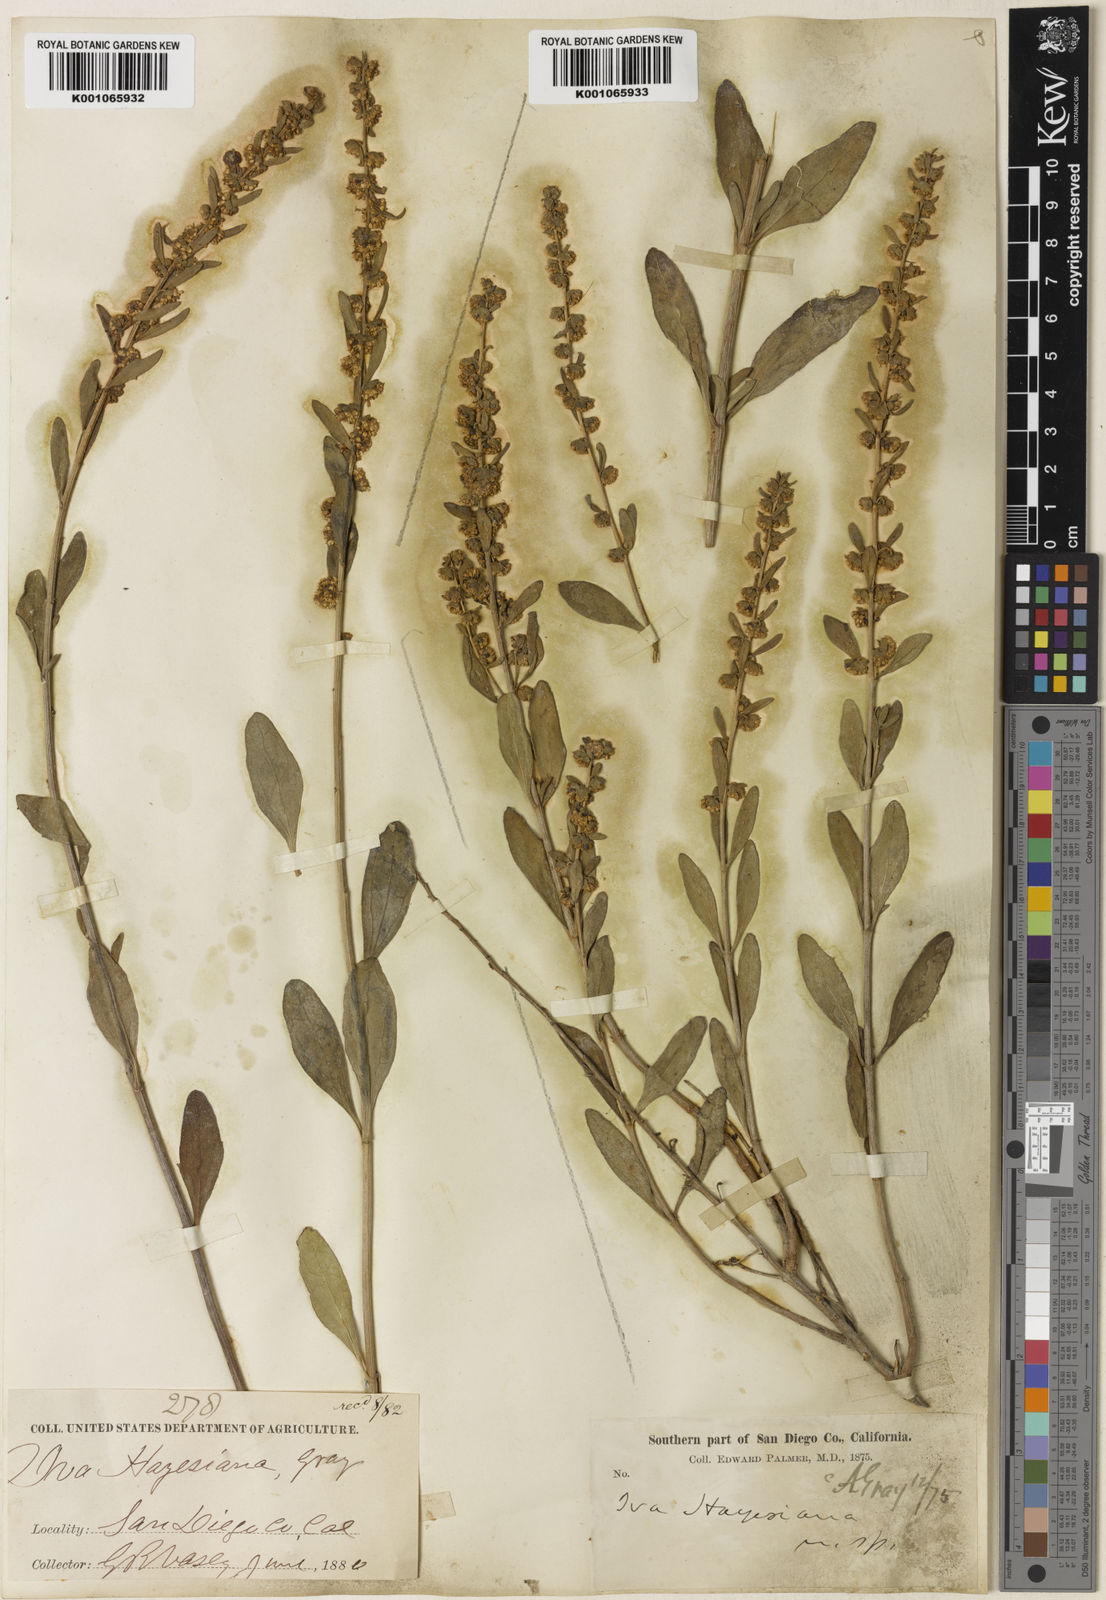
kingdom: Plantae
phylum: Tracheophyta
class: Magnoliopsida
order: Asterales
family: Asteraceae
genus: Iva
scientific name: Iva hayesiana
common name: San diego marsh-elder
